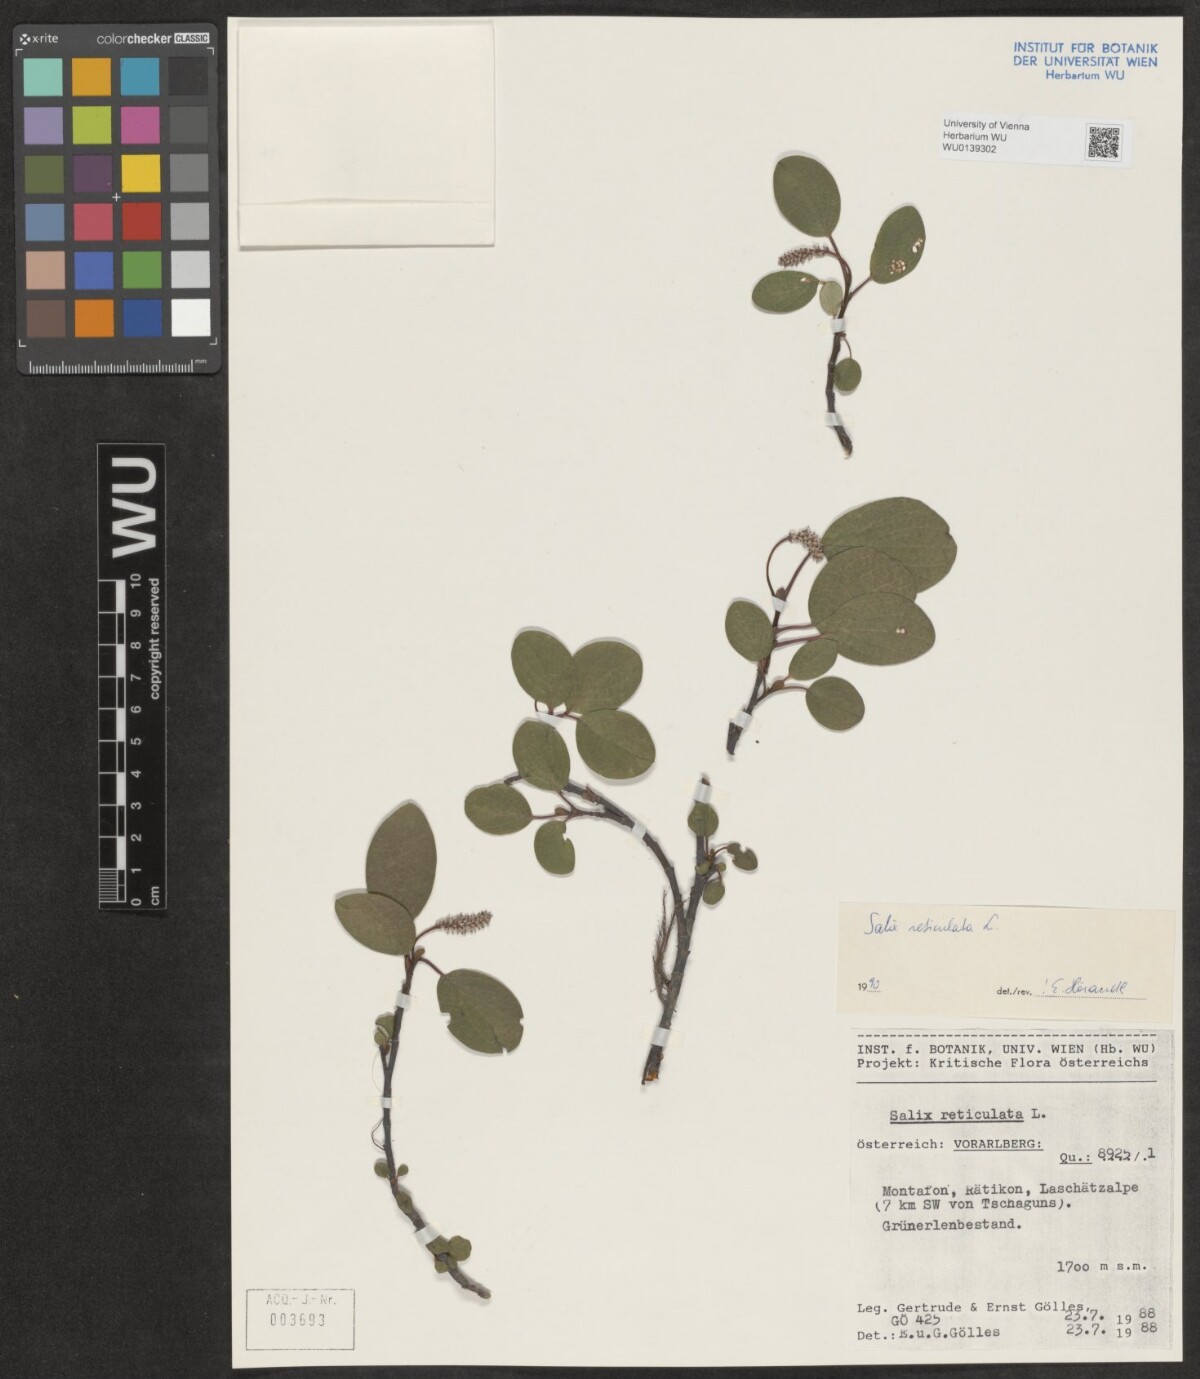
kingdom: Plantae
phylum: Tracheophyta
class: Magnoliopsida
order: Malpighiales
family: Salicaceae
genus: Salix
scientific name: Salix reticulata
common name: Net-leaved willow
